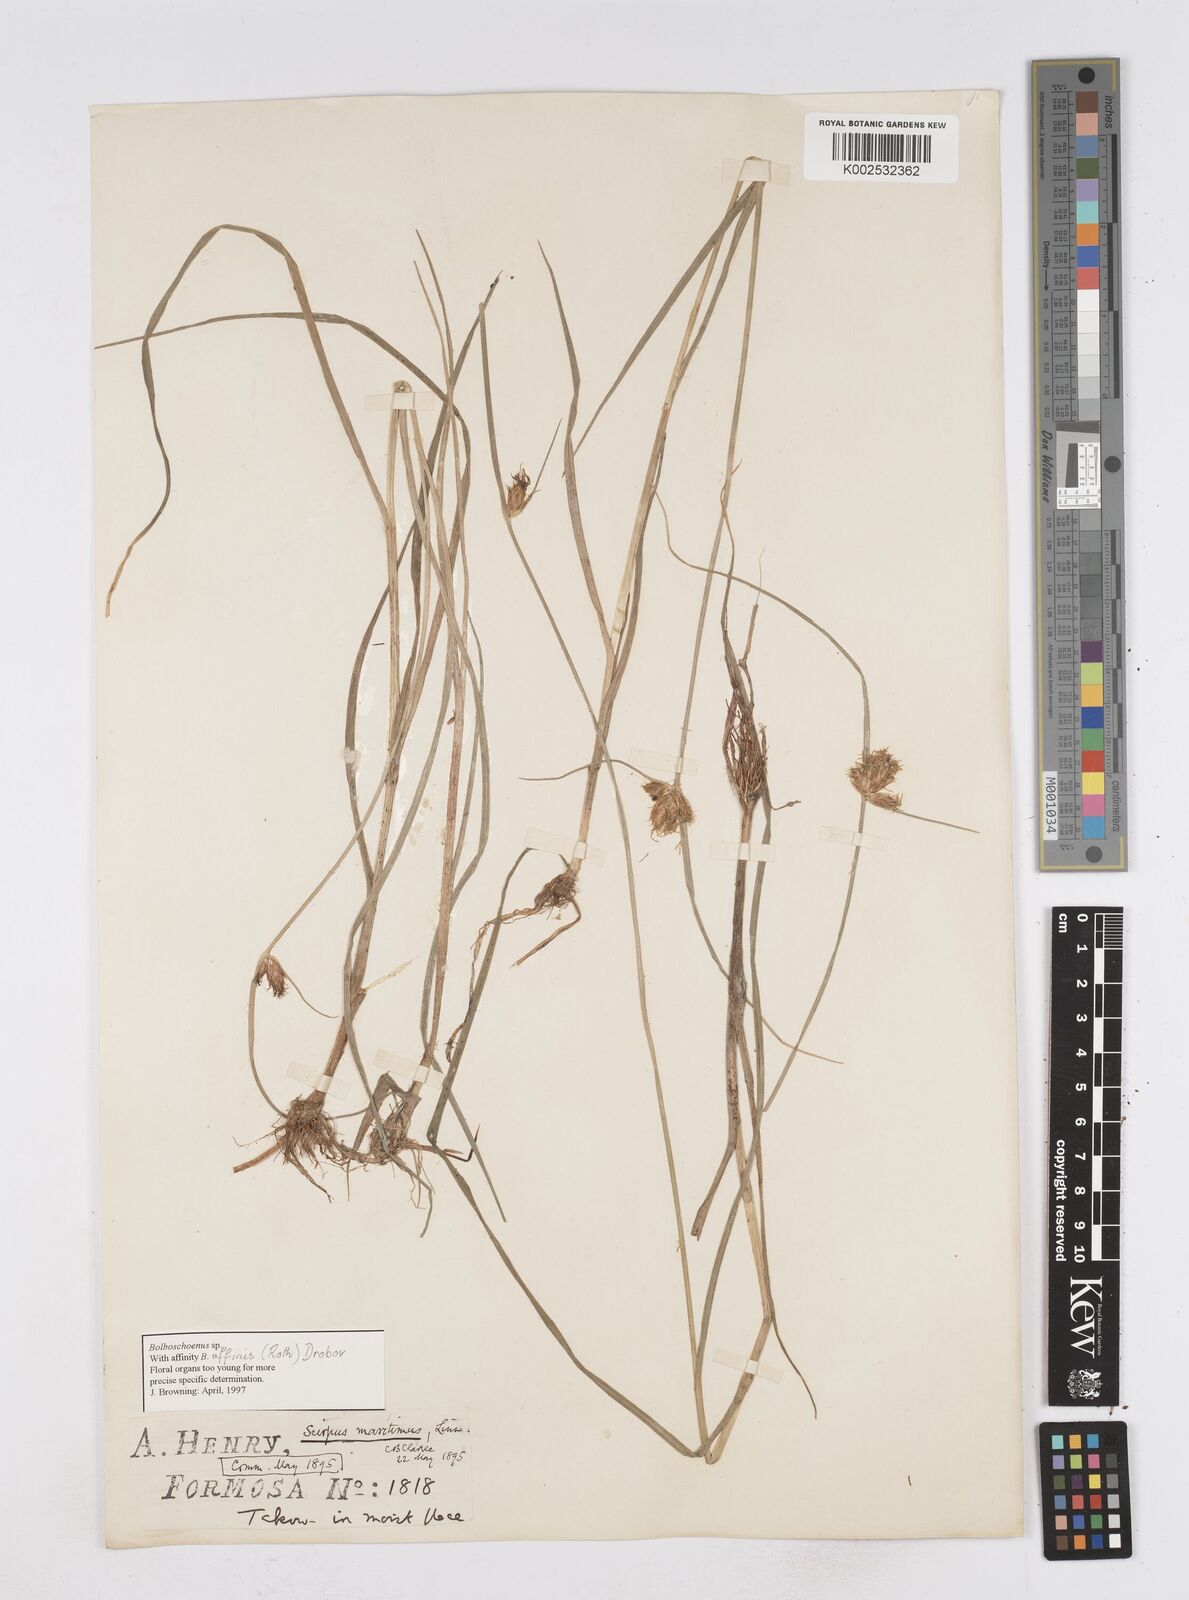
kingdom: Plantae
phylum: Tracheophyta
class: Liliopsida
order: Poales
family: Cyperaceae
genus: Bolboschoenus
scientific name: Bolboschoenus maritimus
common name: Sea club-rush
